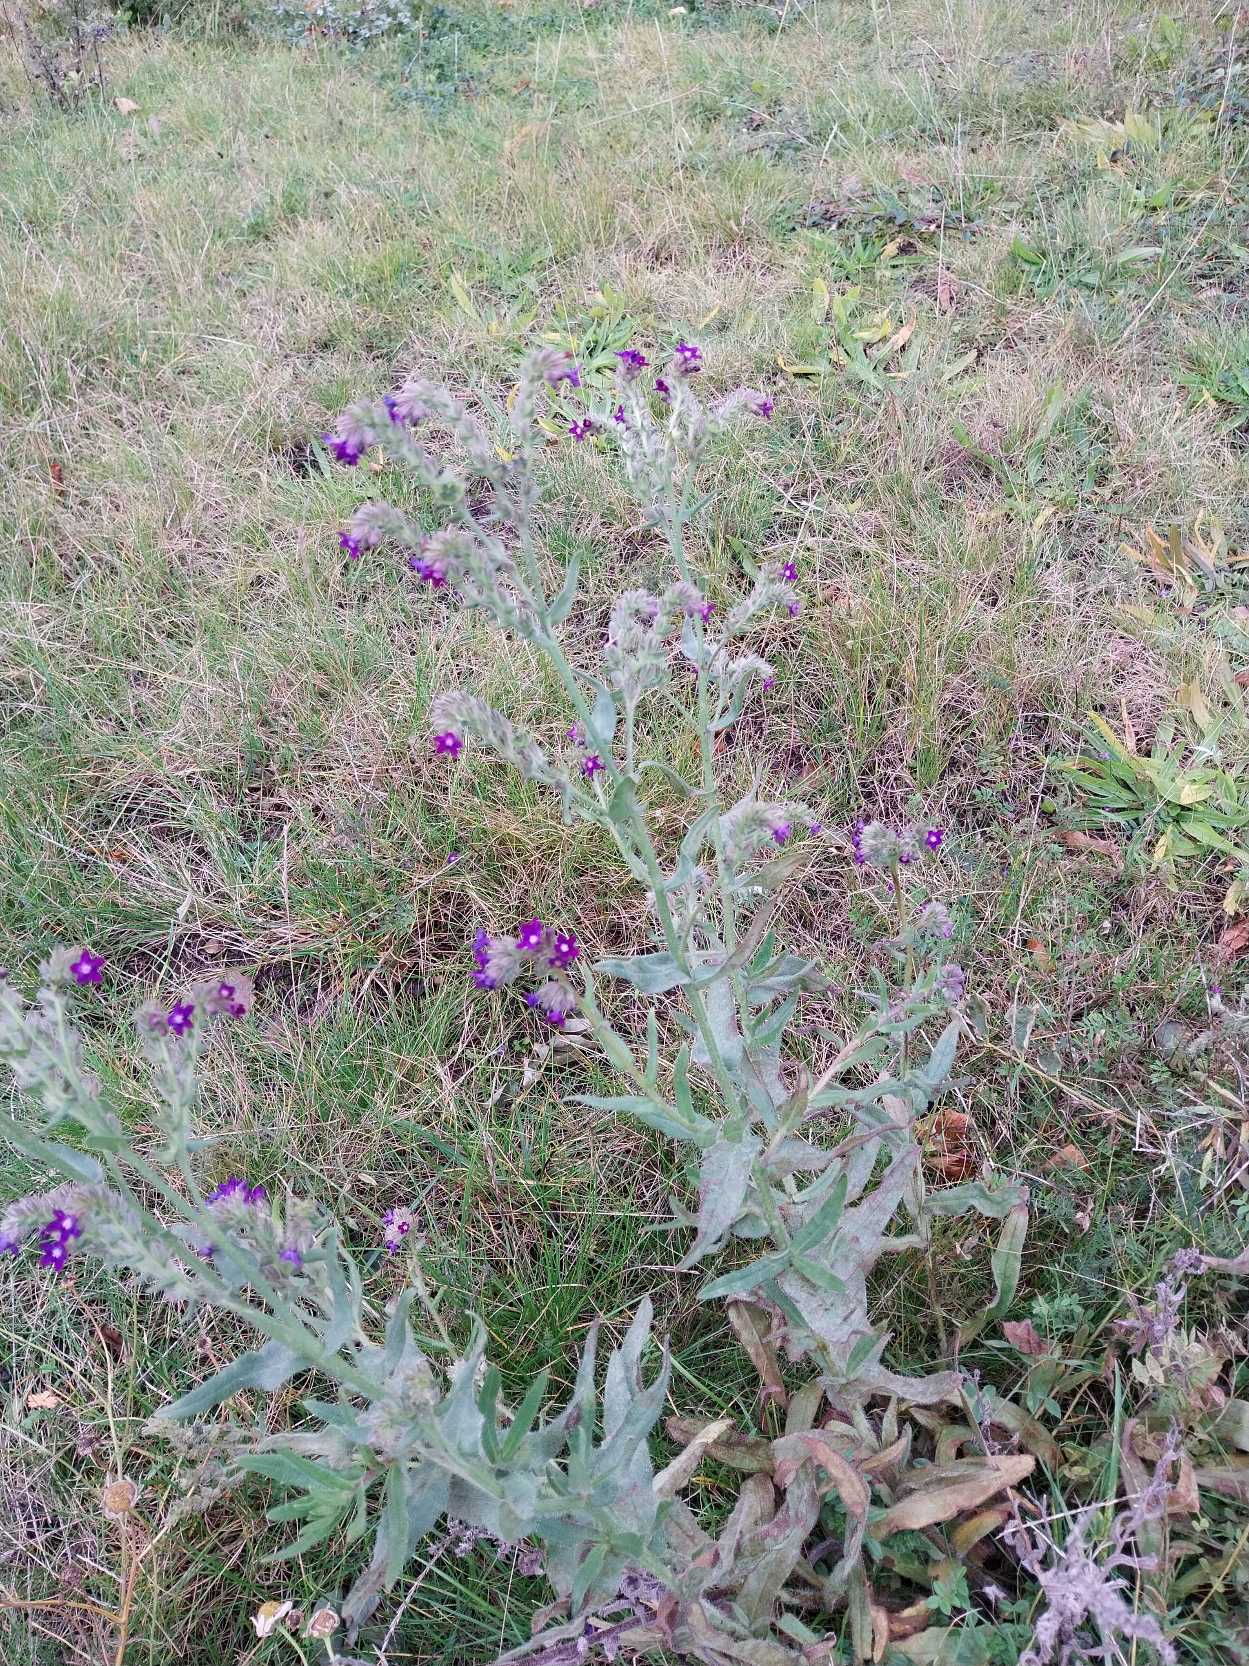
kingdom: Plantae
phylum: Tracheophyta
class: Magnoliopsida
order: Boraginales
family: Boraginaceae
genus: Anchusa
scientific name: Anchusa officinalis
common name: Læge-oksetunge
